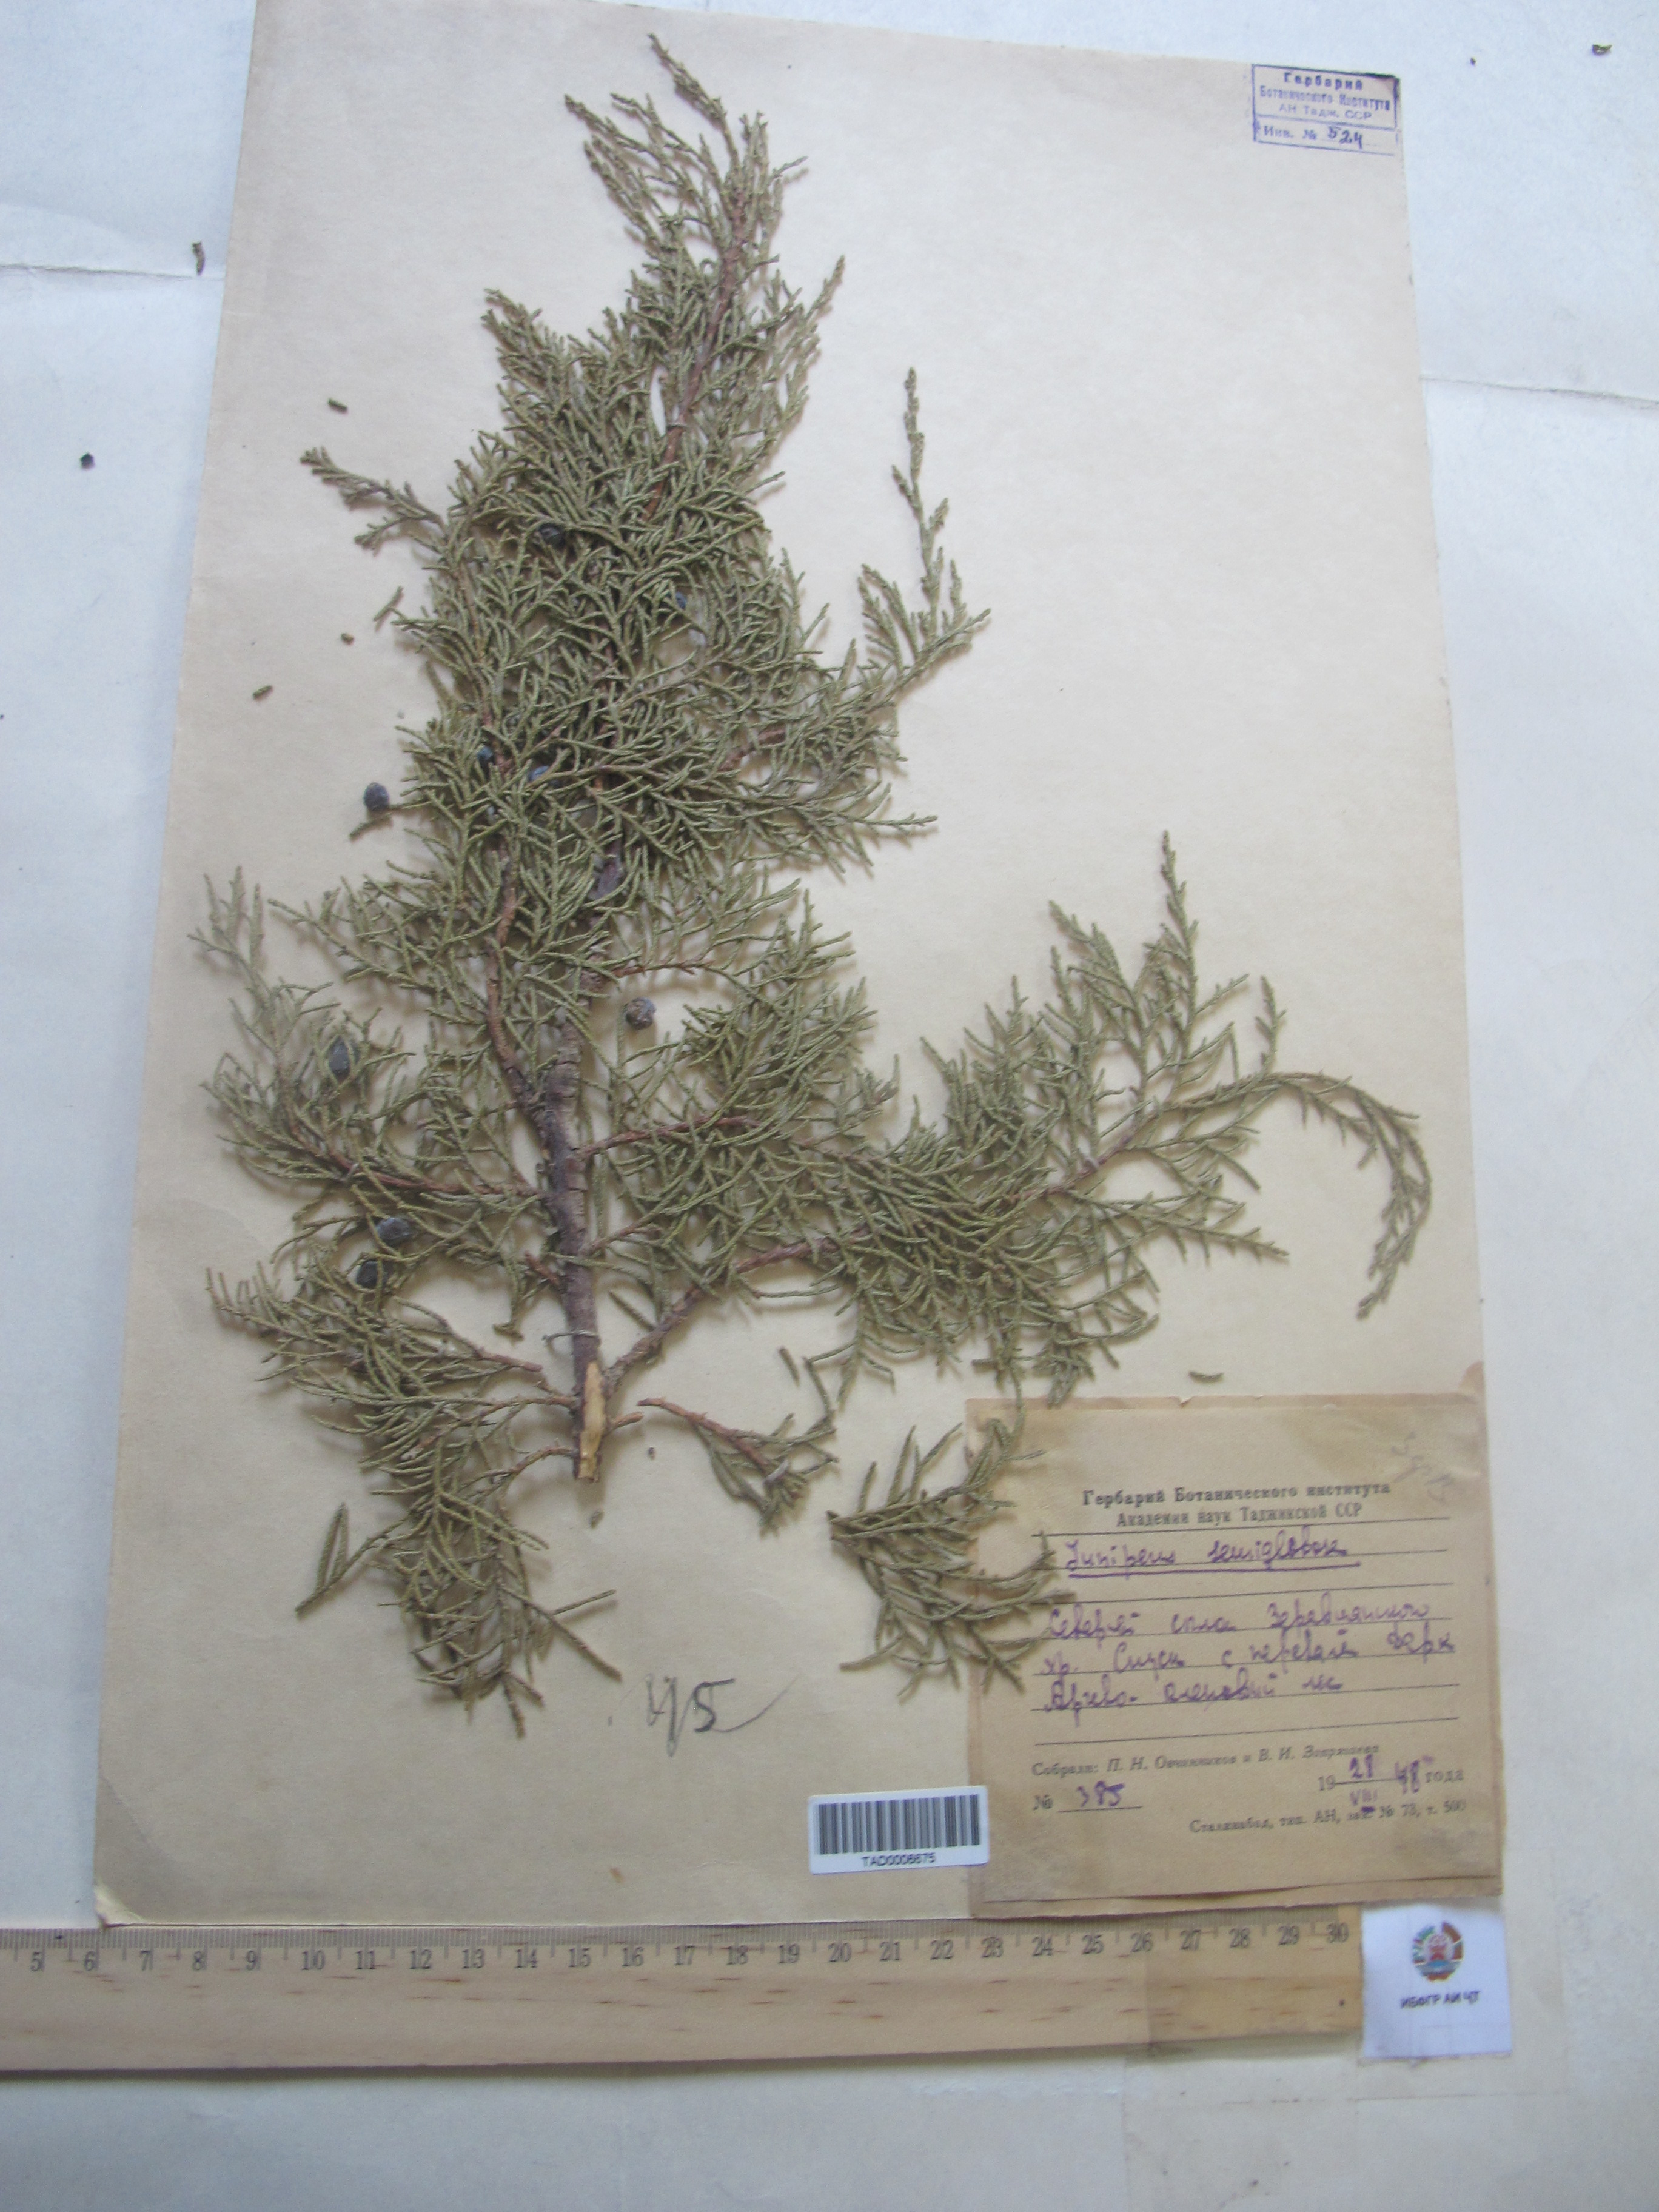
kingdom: Plantae
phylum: Tracheophyta
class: Pinopsida
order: Pinales
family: Cupressaceae
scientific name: Cupressaceae
